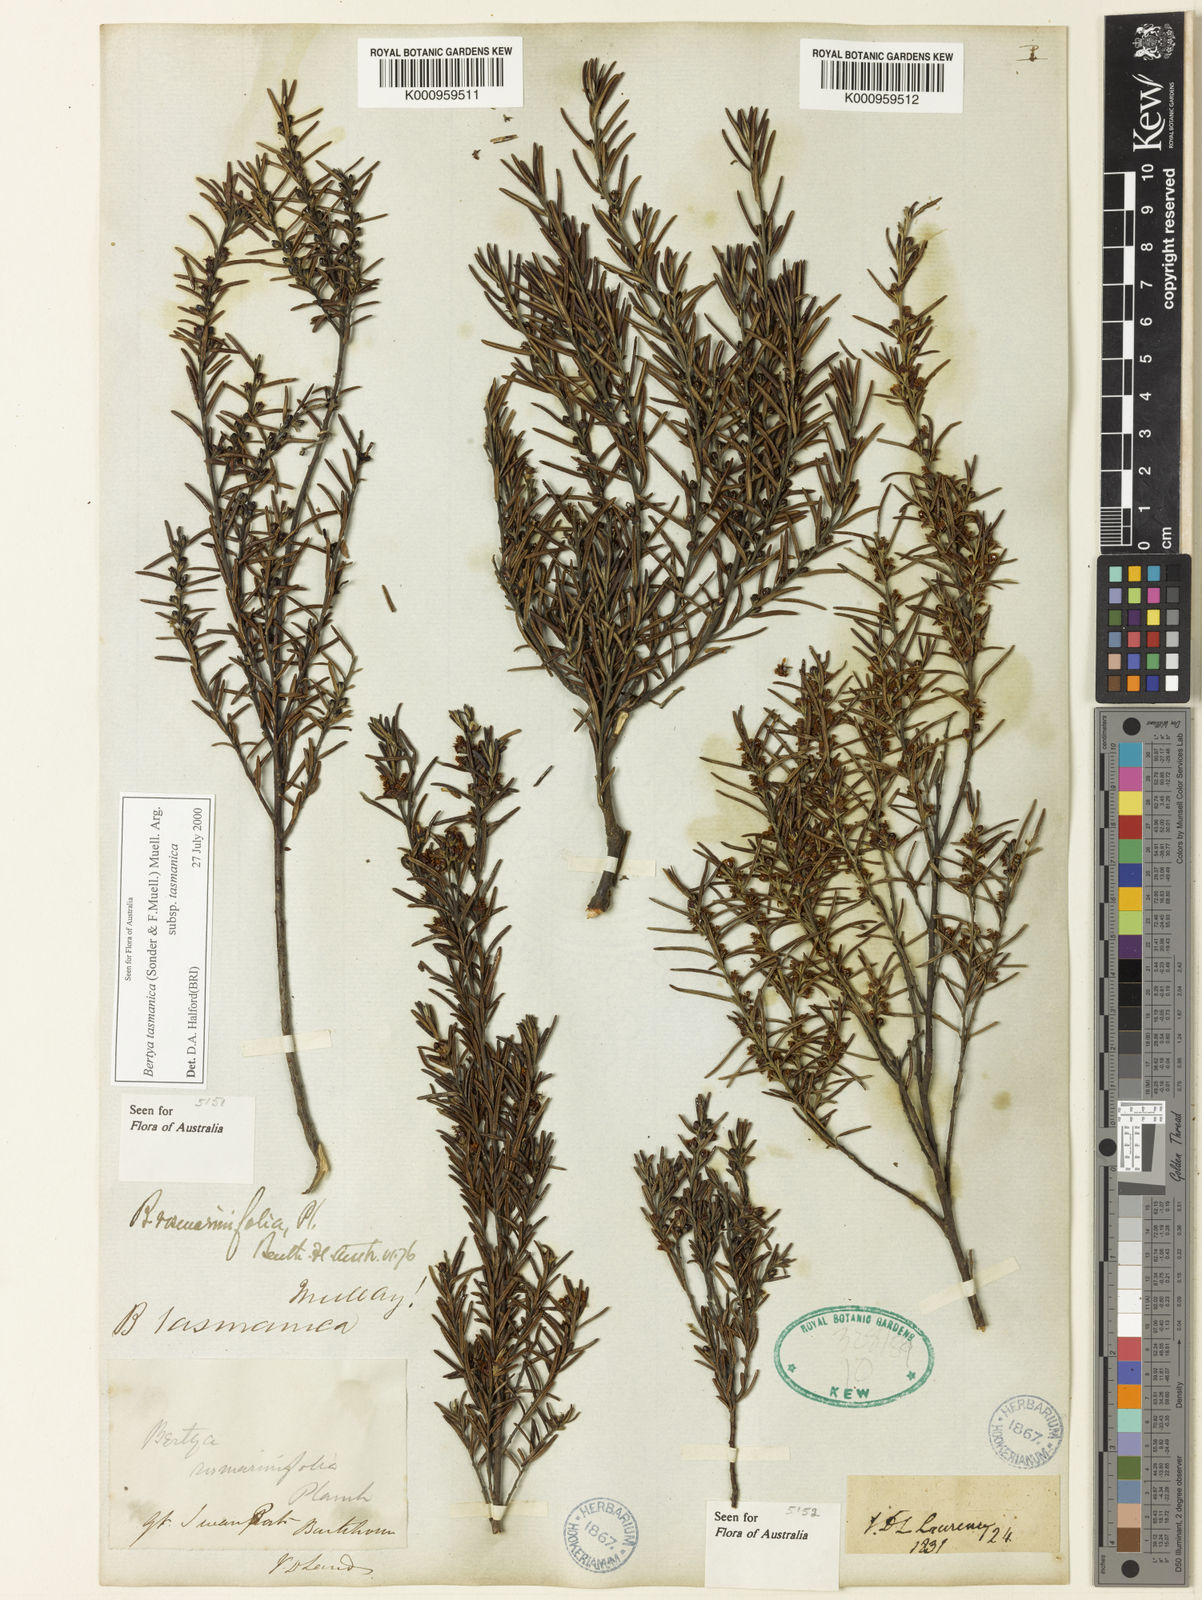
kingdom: Plantae
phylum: Tracheophyta
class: Magnoliopsida
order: Malpighiales
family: Euphorbiaceae
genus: Bertya
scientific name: Bertya rosmarinifolia
